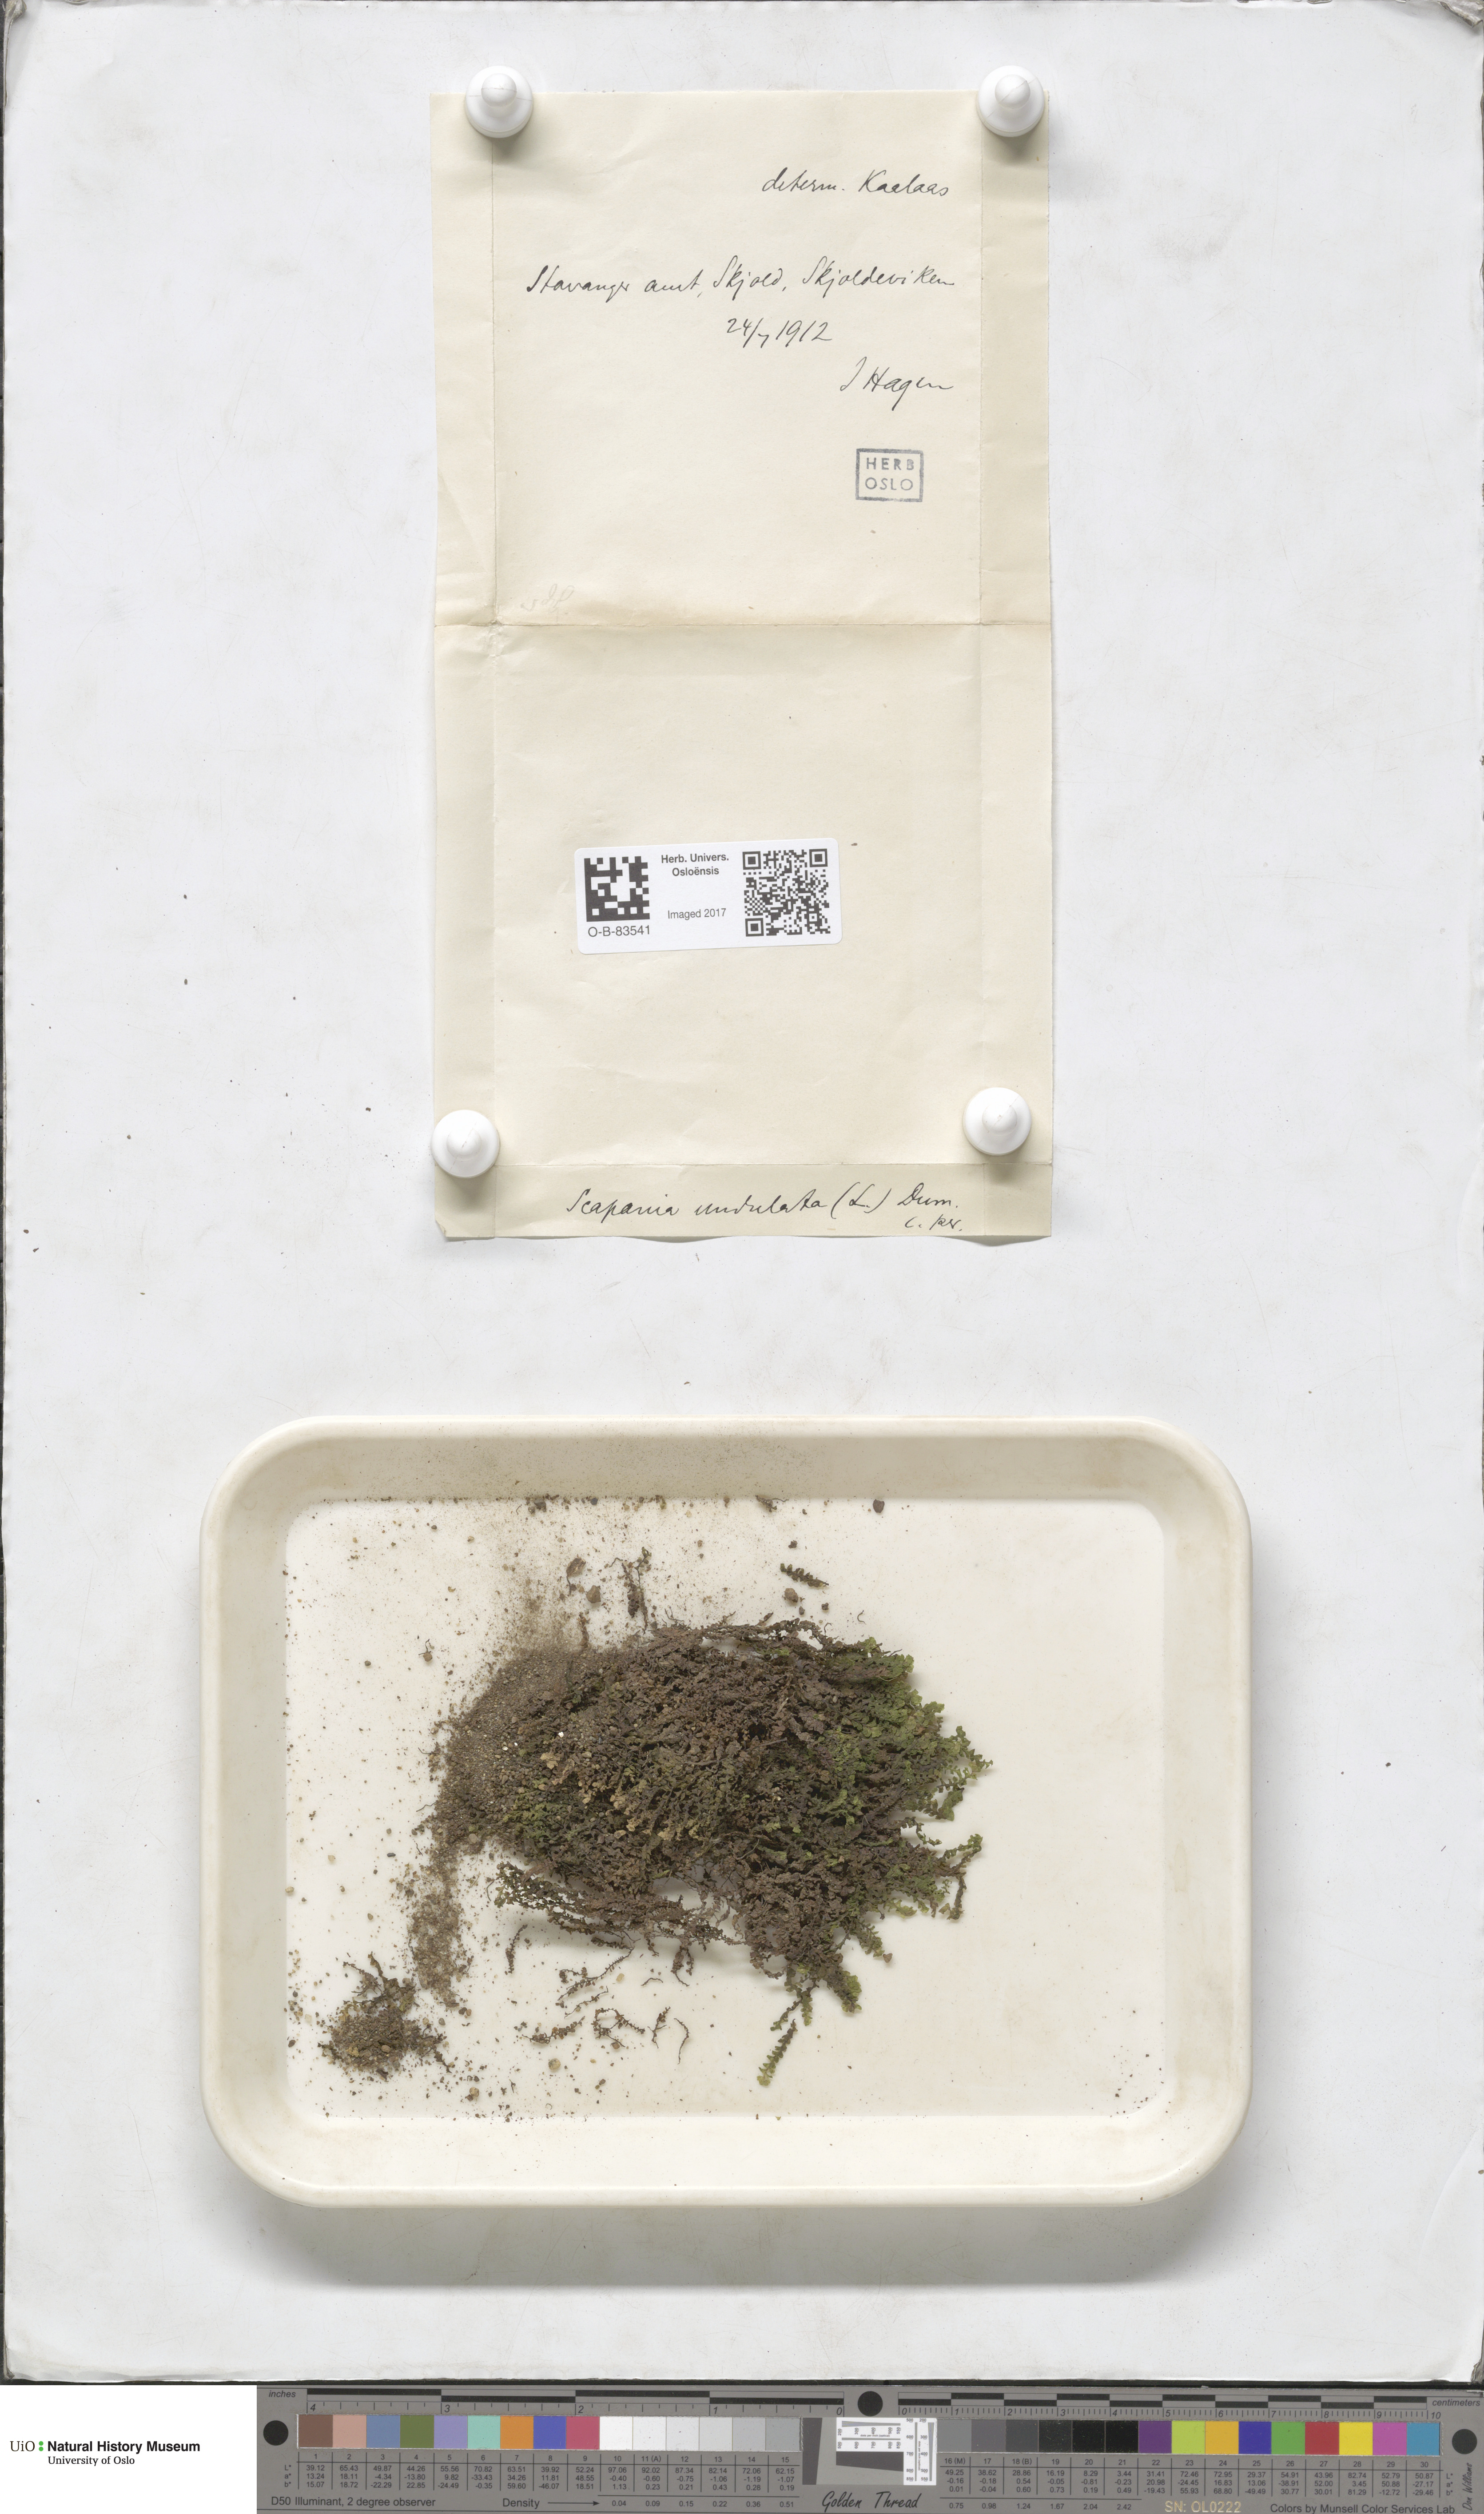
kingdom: Plantae
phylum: Marchantiophyta
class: Jungermanniopsida
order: Jungermanniales
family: Scapaniaceae
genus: Scapania
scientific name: Scapania undulata
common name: Water earwort
